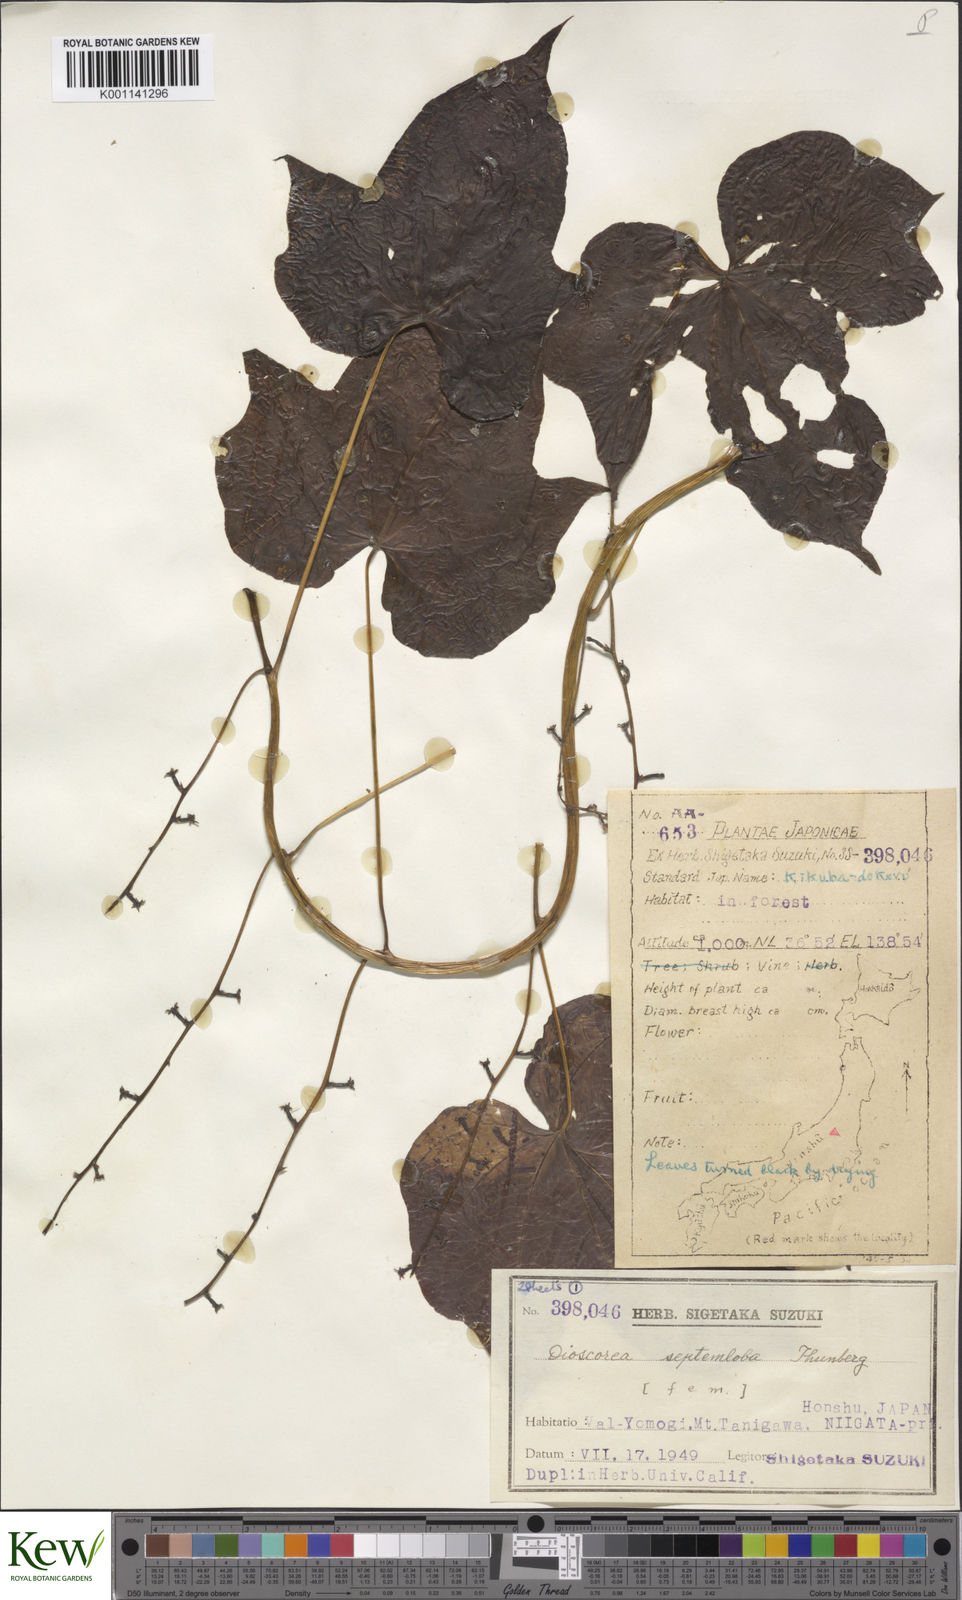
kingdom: Plantae
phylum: Tracheophyta
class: Liliopsida
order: Dioscoreales
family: Dioscoreaceae
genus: Dioscorea
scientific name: Dioscorea septemloba
